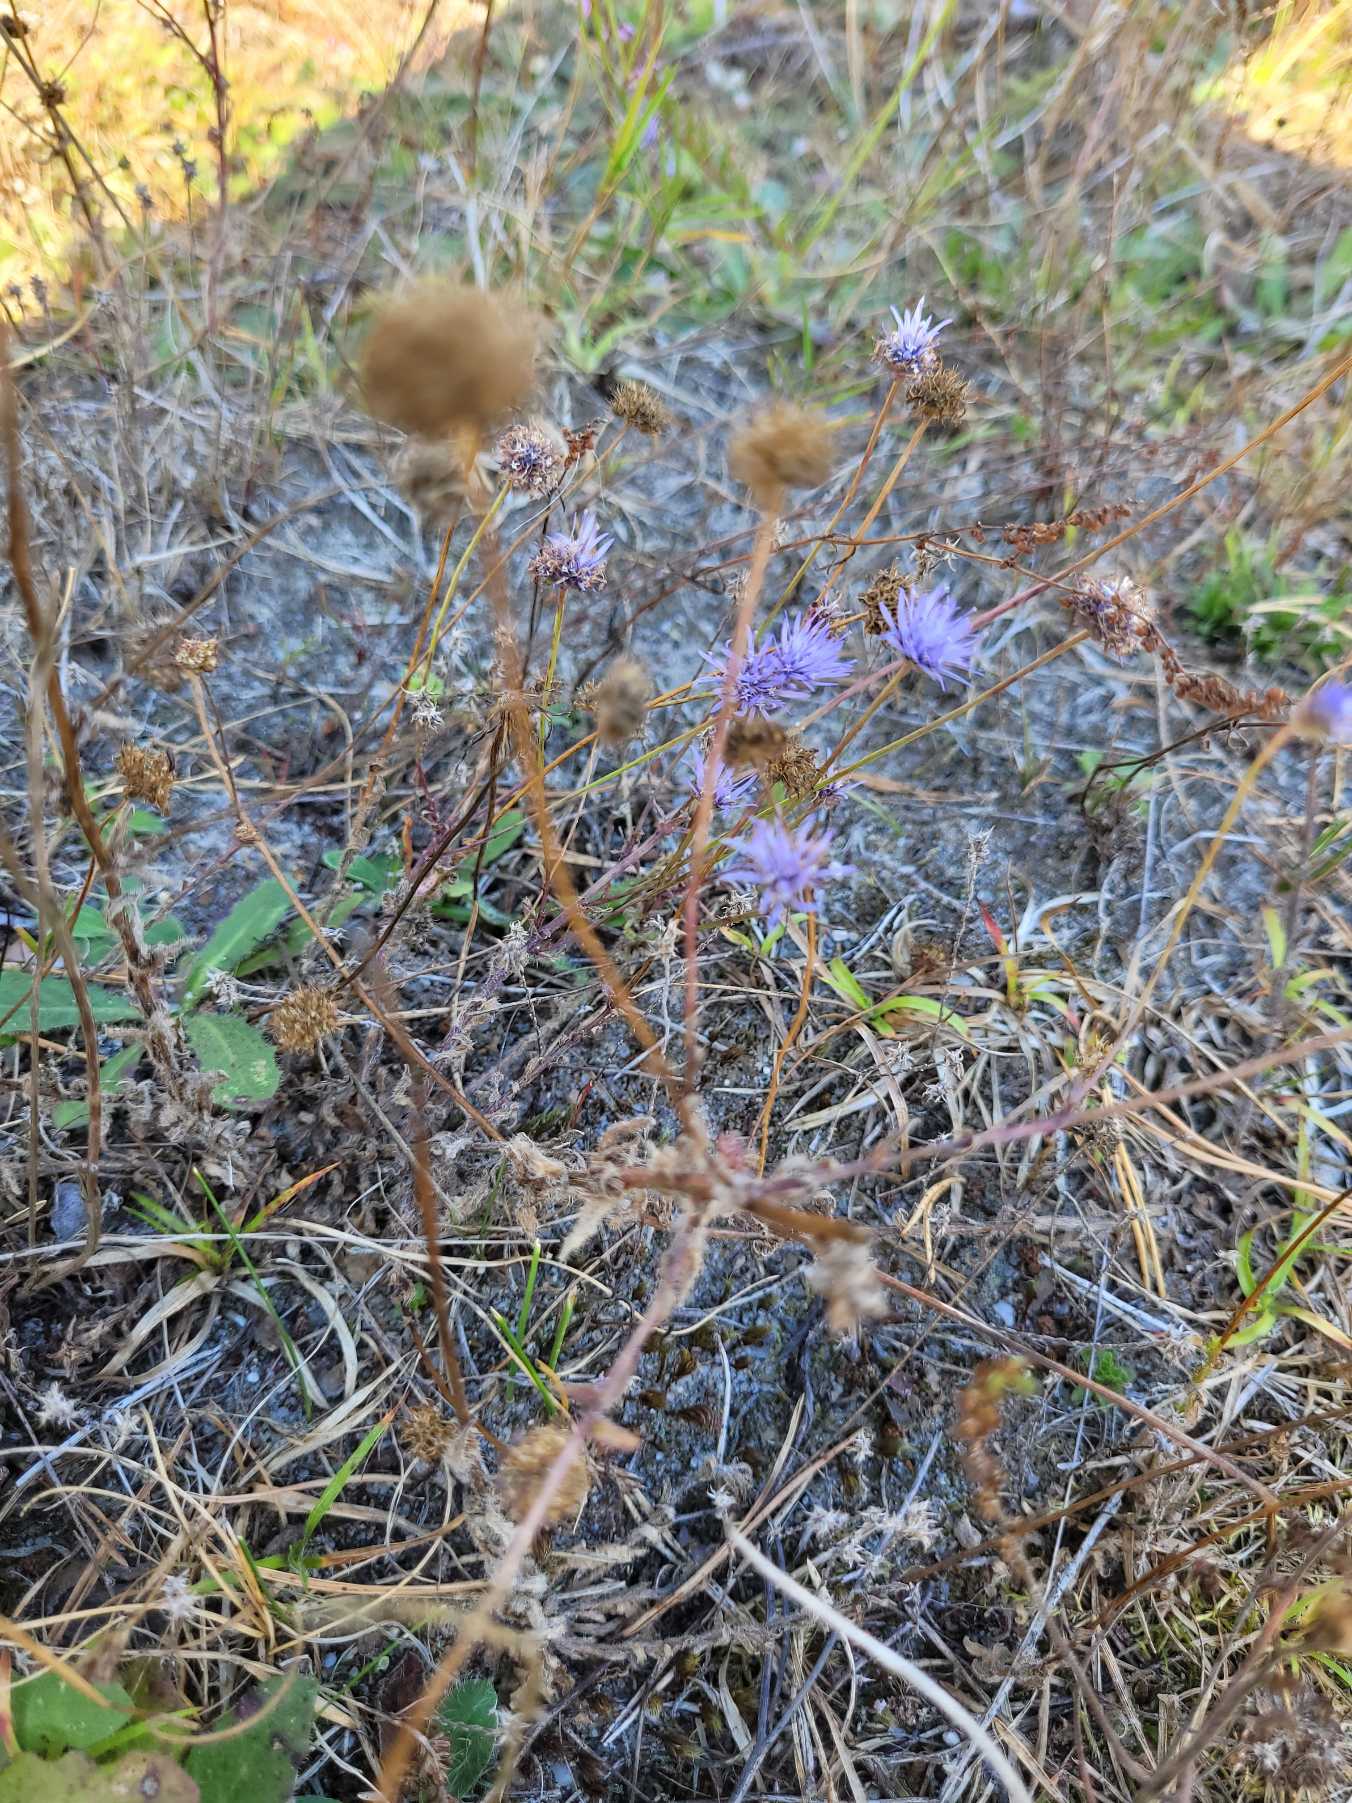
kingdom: Plantae
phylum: Tracheophyta
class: Magnoliopsida
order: Asterales
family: Campanulaceae
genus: Jasione
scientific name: Jasione montana
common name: Blåmunke
